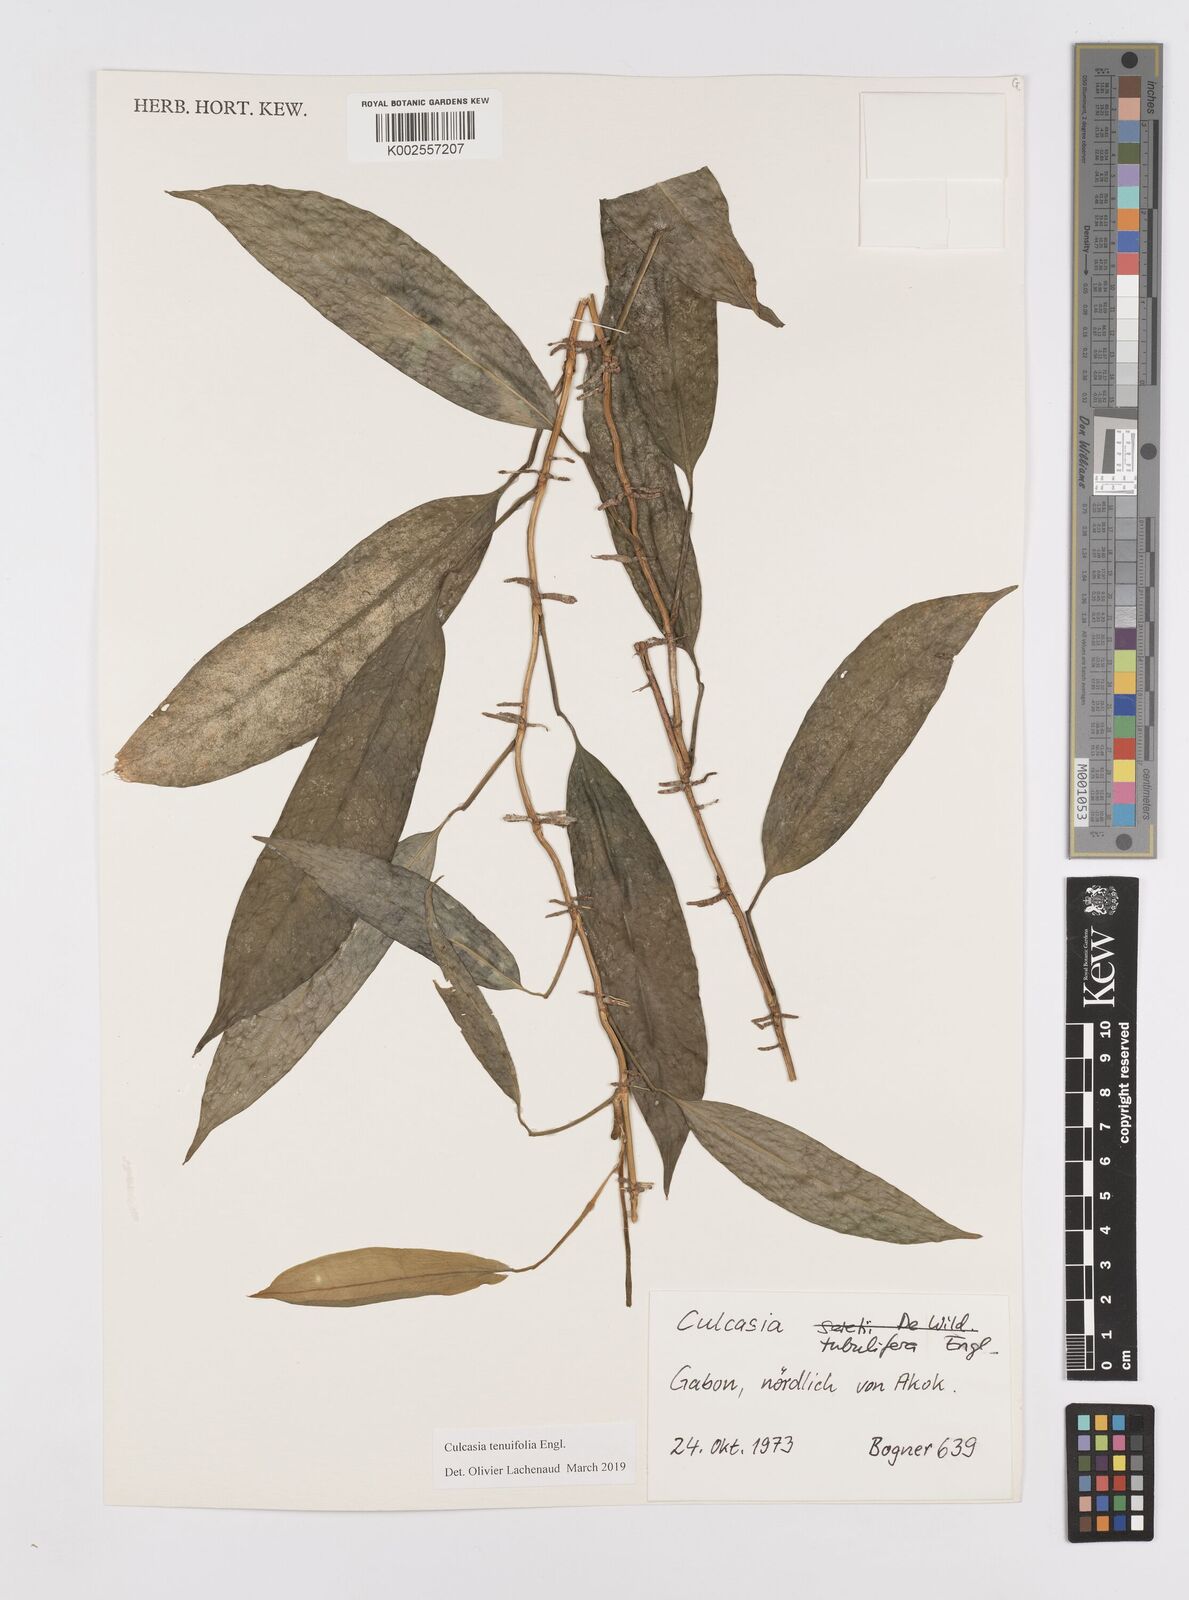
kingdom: Plantae
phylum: Tracheophyta
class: Liliopsida
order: Alismatales
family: Araceae
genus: Culcasia
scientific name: Culcasia tenuifolia
